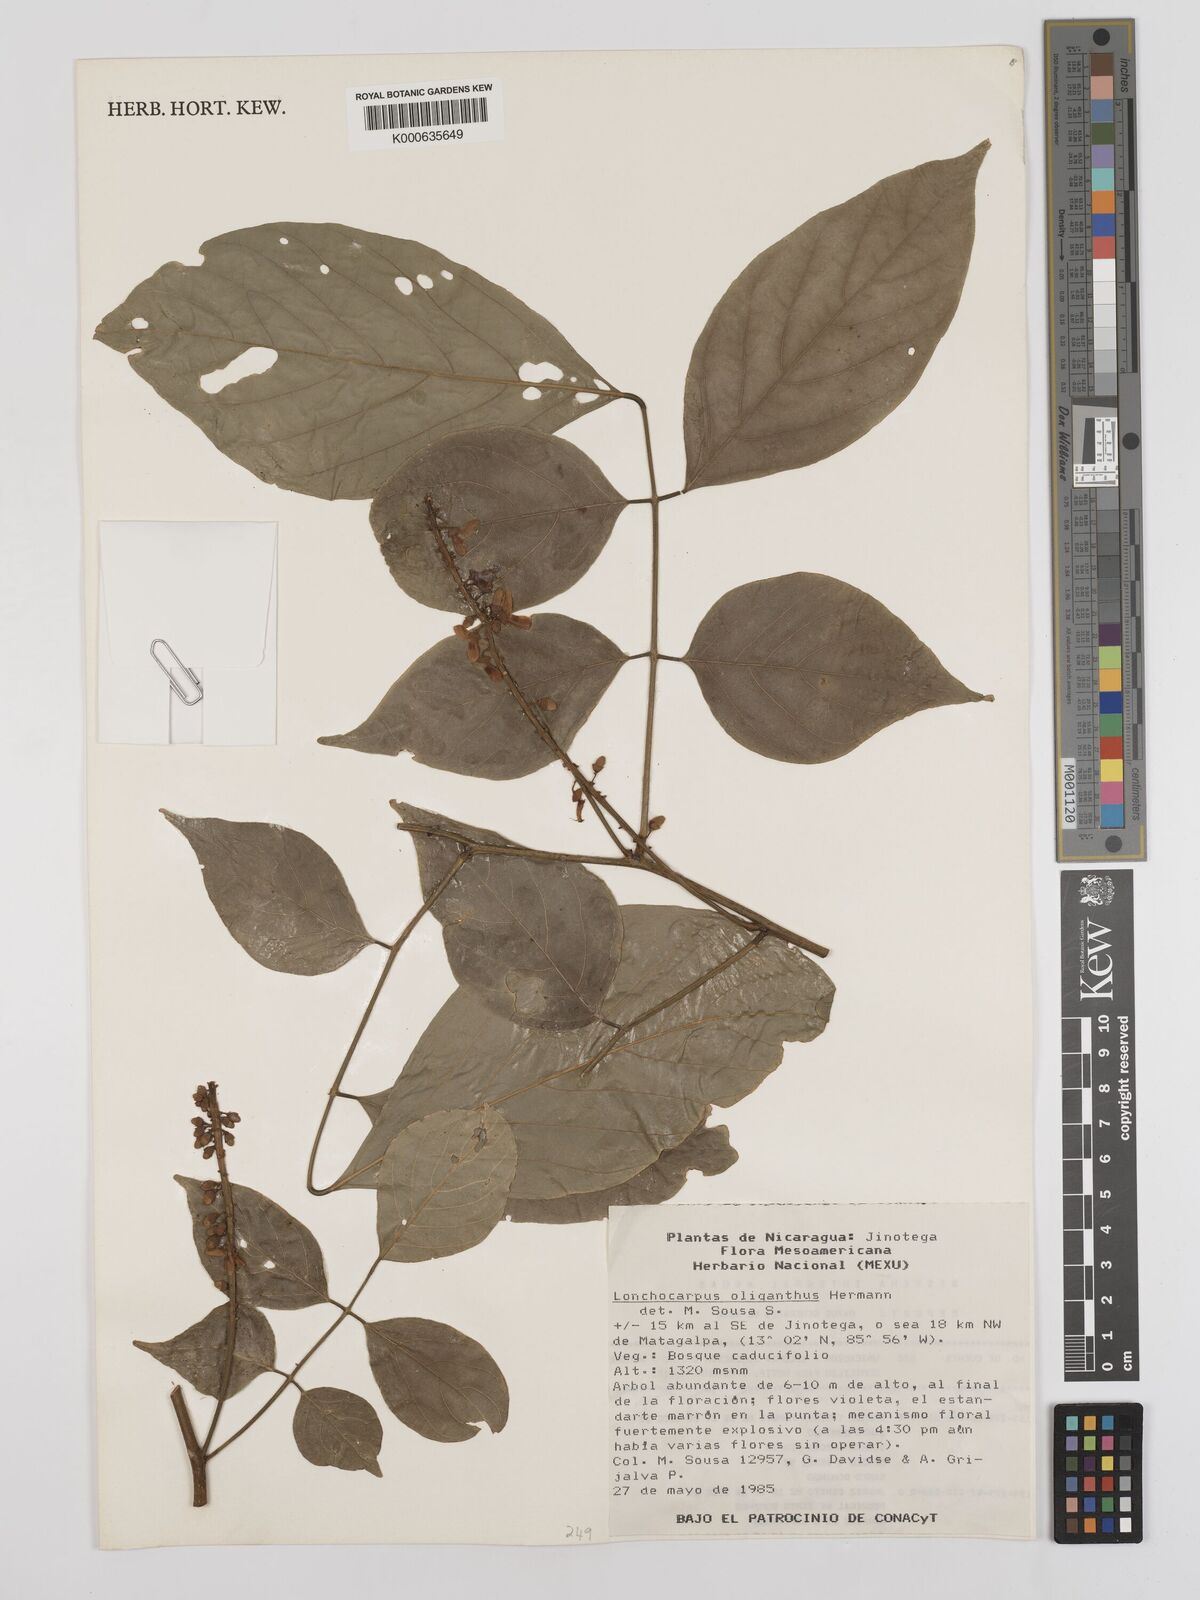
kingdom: Plantae
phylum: Tracheophyta
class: Magnoliopsida
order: Fabales
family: Fabaceae
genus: Lonchocarpus
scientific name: Lonchocarpus oliganthus
